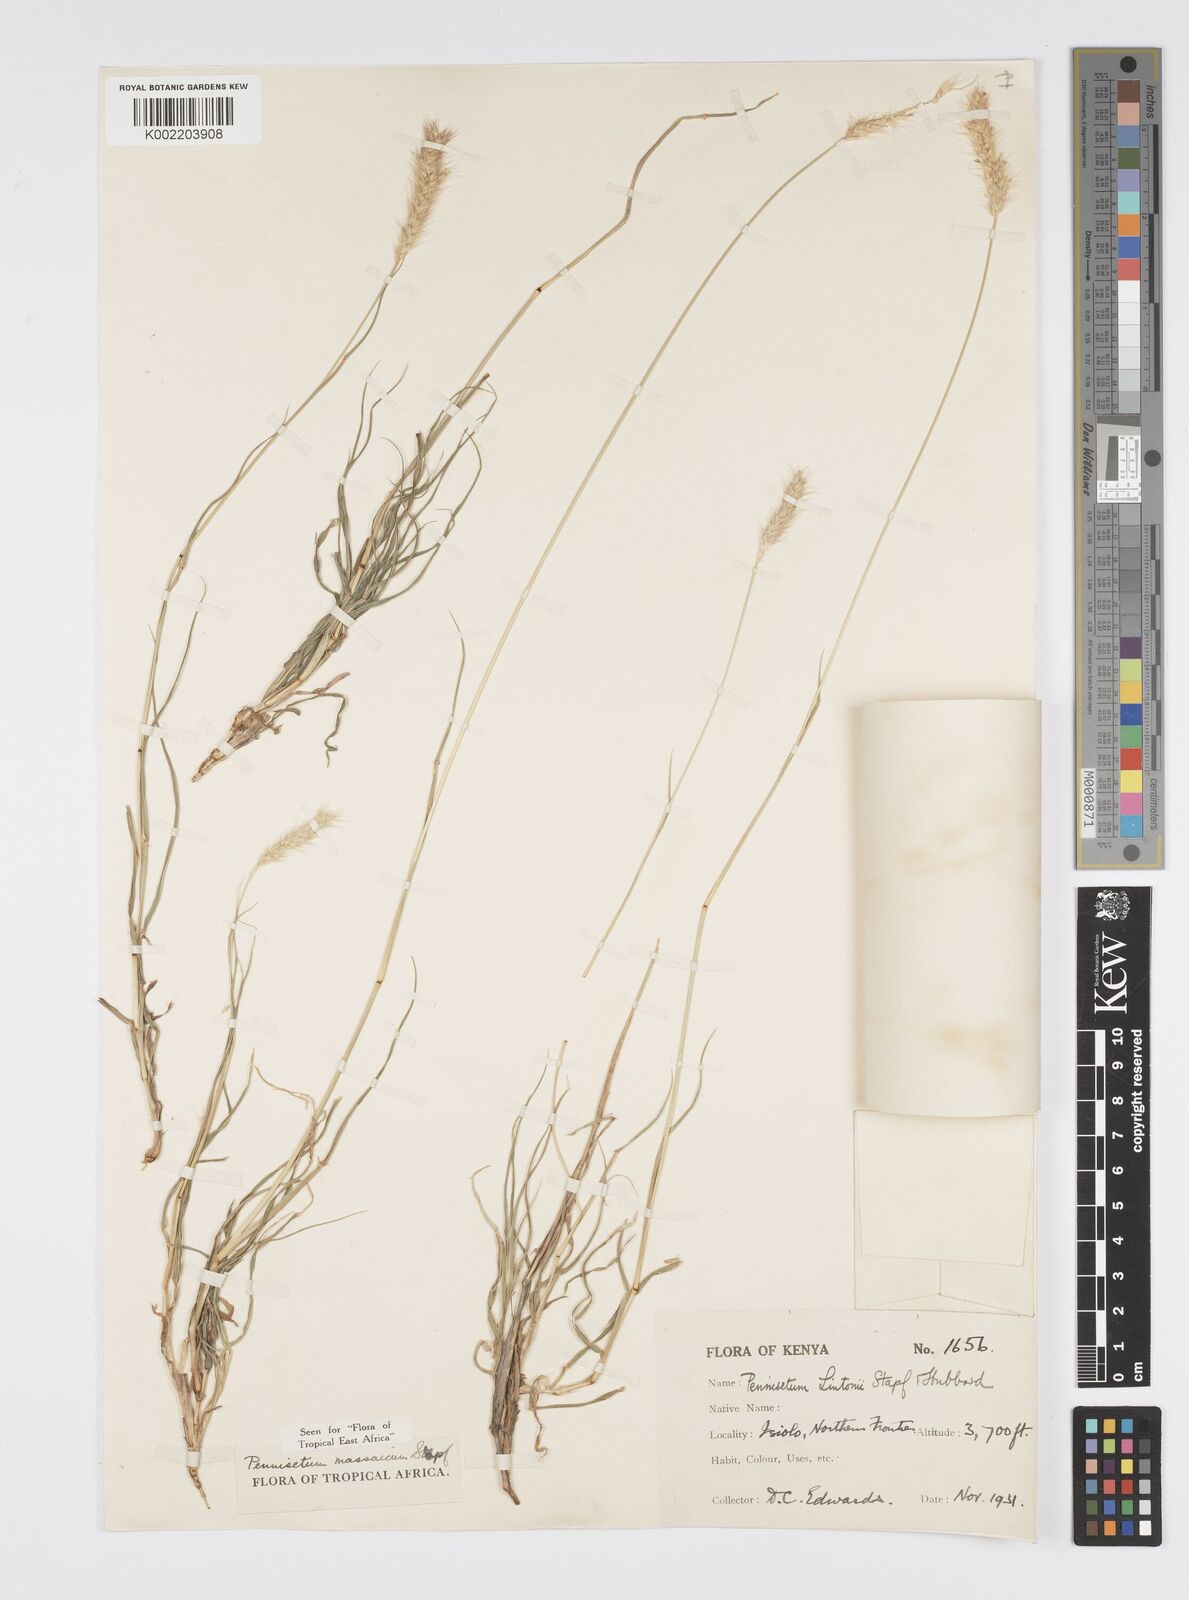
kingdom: Plantae
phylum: Tracheophyta
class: Liliopsida
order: Poales
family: Poaceae
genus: Cenchrus
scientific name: Cenchrus massaicus
